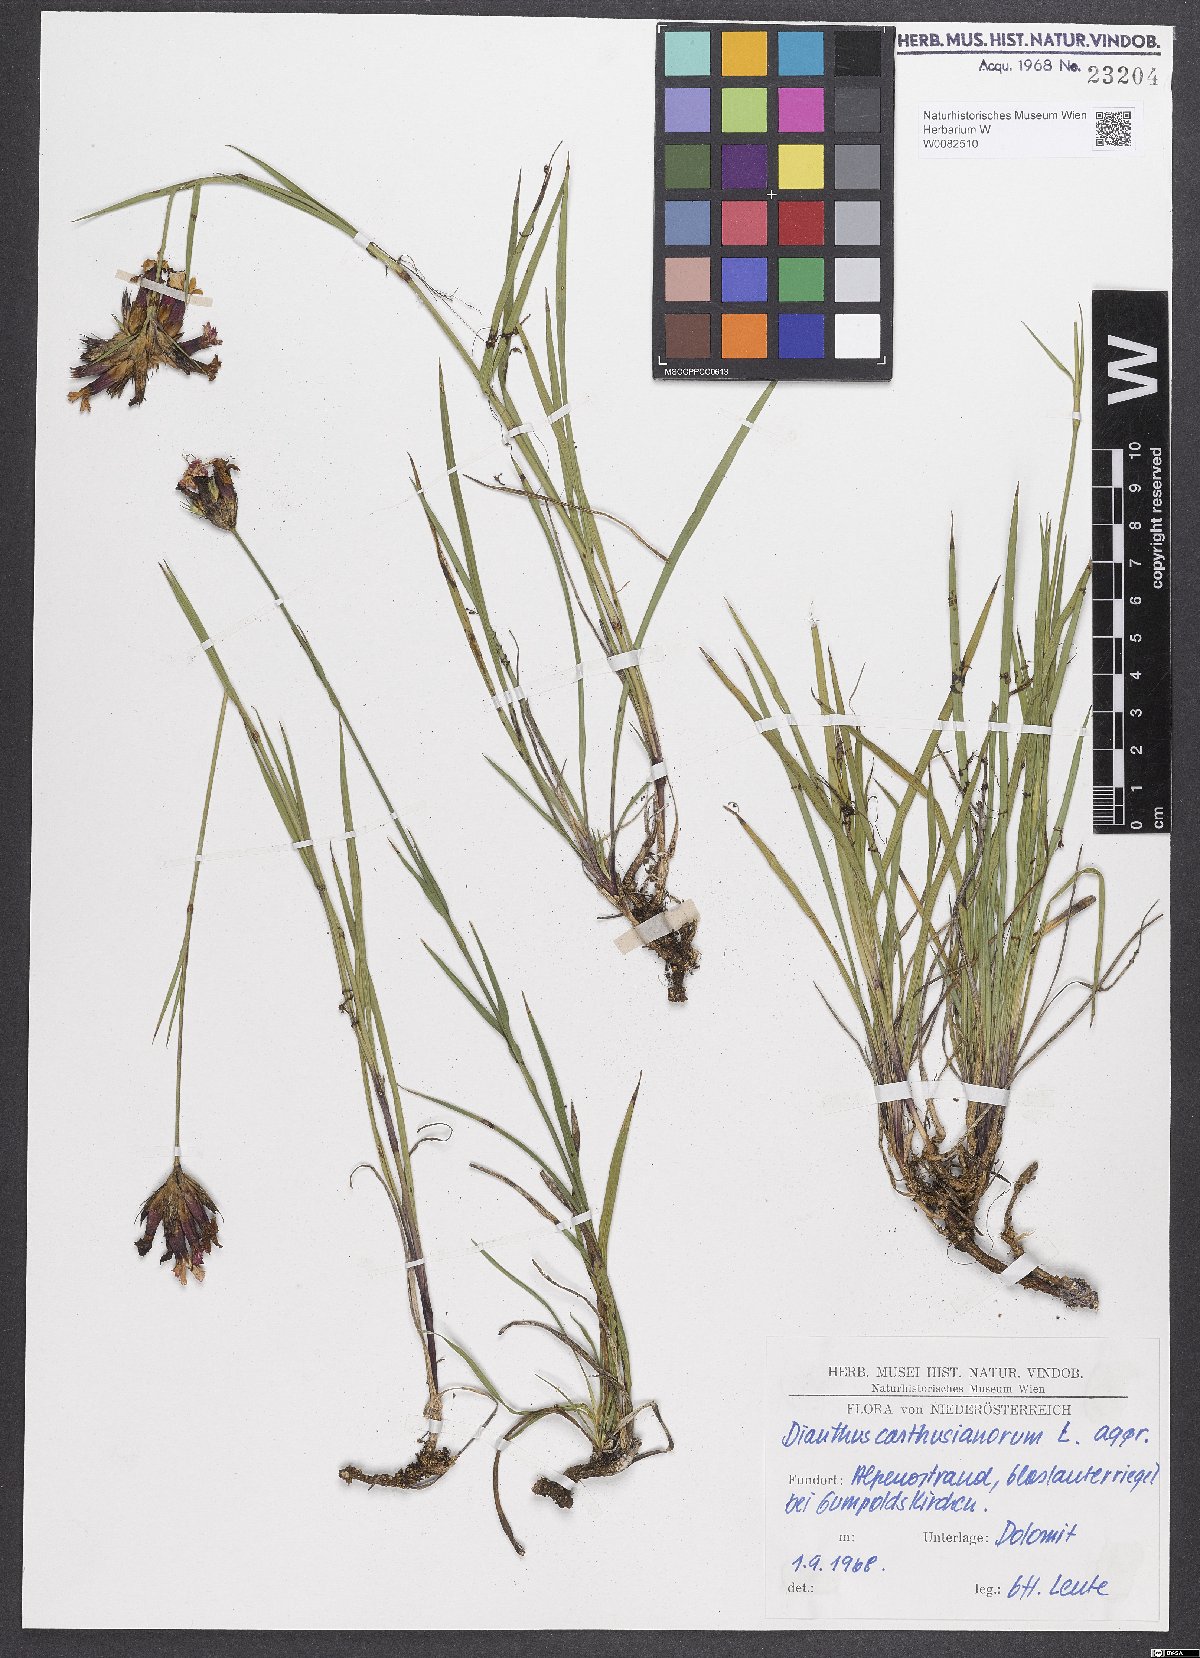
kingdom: Plantae
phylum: Tracheophyta
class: Magnoliopsida
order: Caryophyllales
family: Caryophyllaceae
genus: Dianthus
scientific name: Dianthus carthusianorum
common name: Carthusian pink
